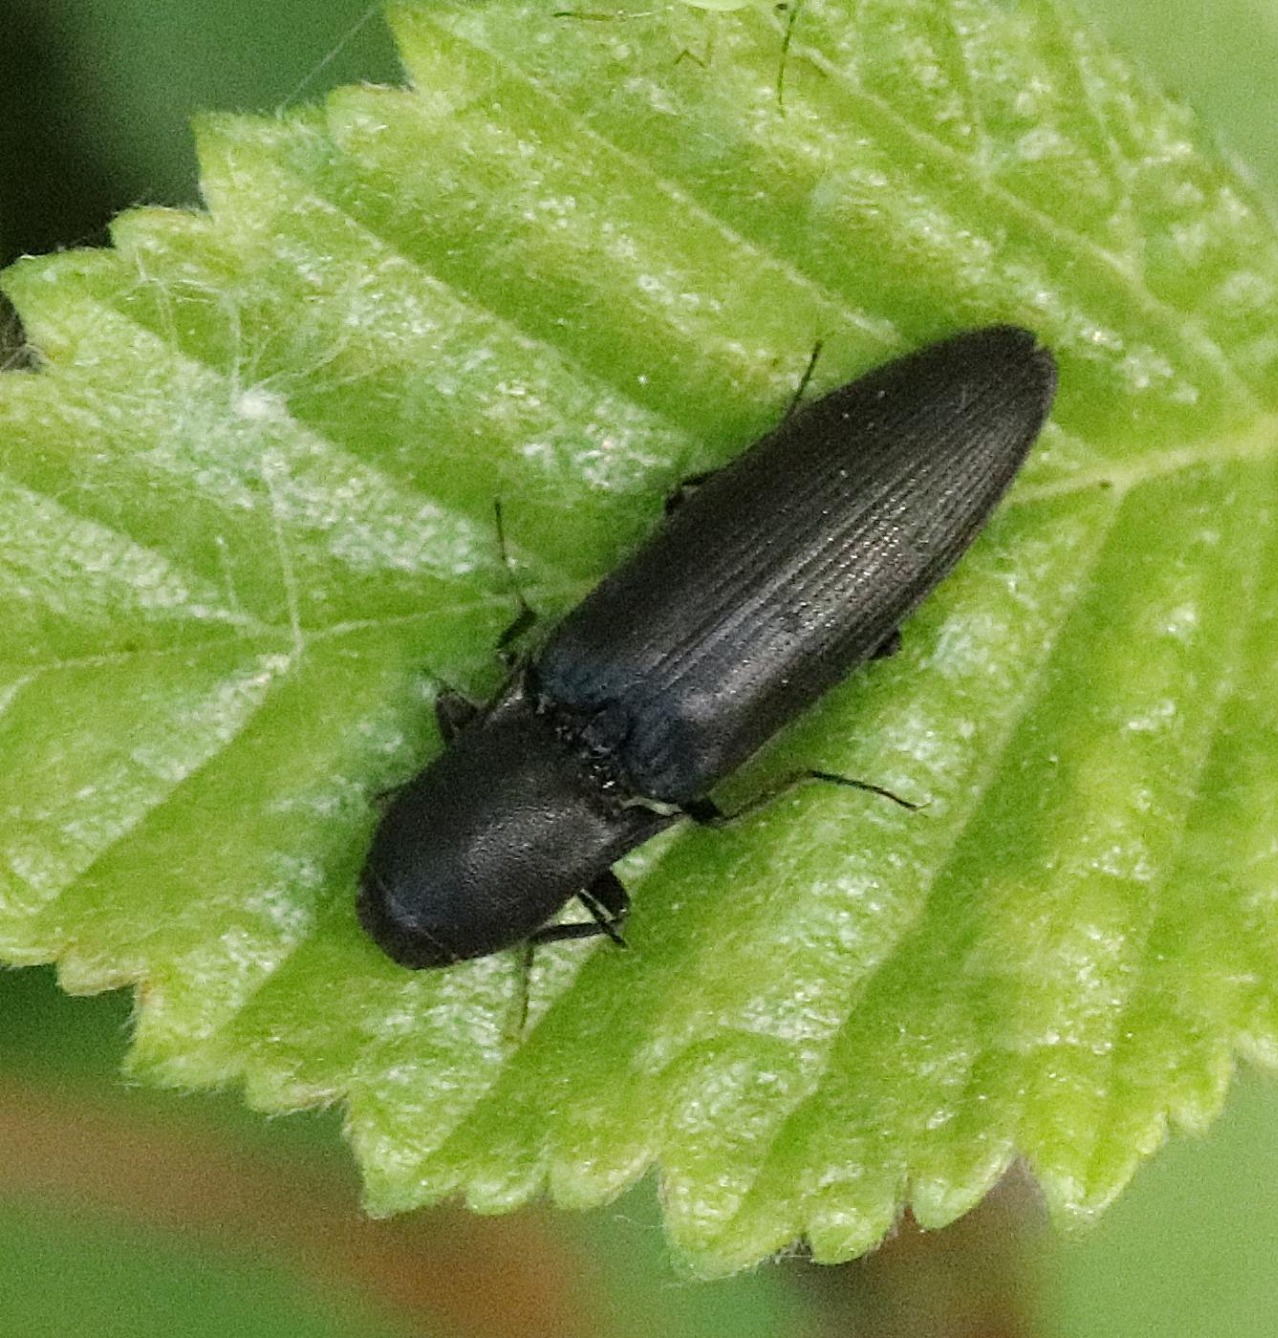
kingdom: Animalia
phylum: Arthropoda
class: Insecta
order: Coleoptera
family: Elateridae
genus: Ectinus
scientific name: Ectinus aterrimus
